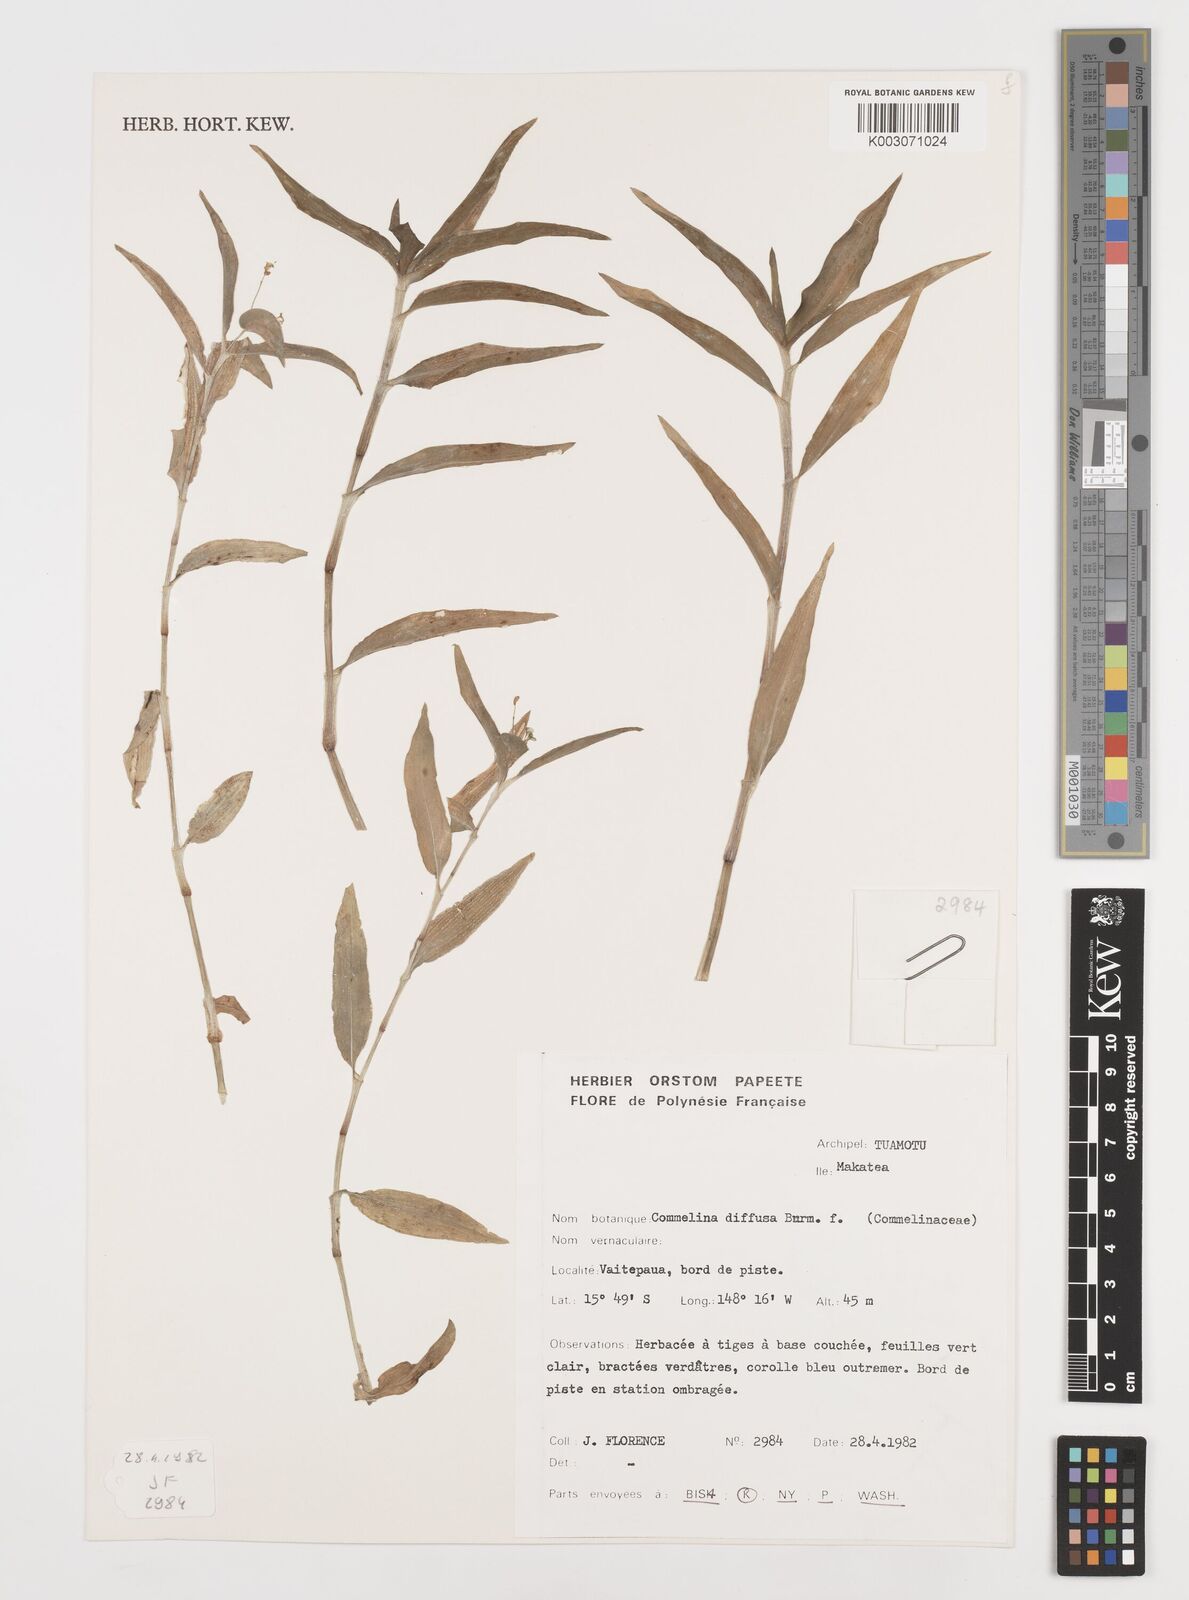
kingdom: Plantae
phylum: Tracheophyta
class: Liliopsida
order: Commelinales
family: Commelinaceae
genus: Commelina
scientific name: Commelina diffusa
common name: Climbing dayflower
